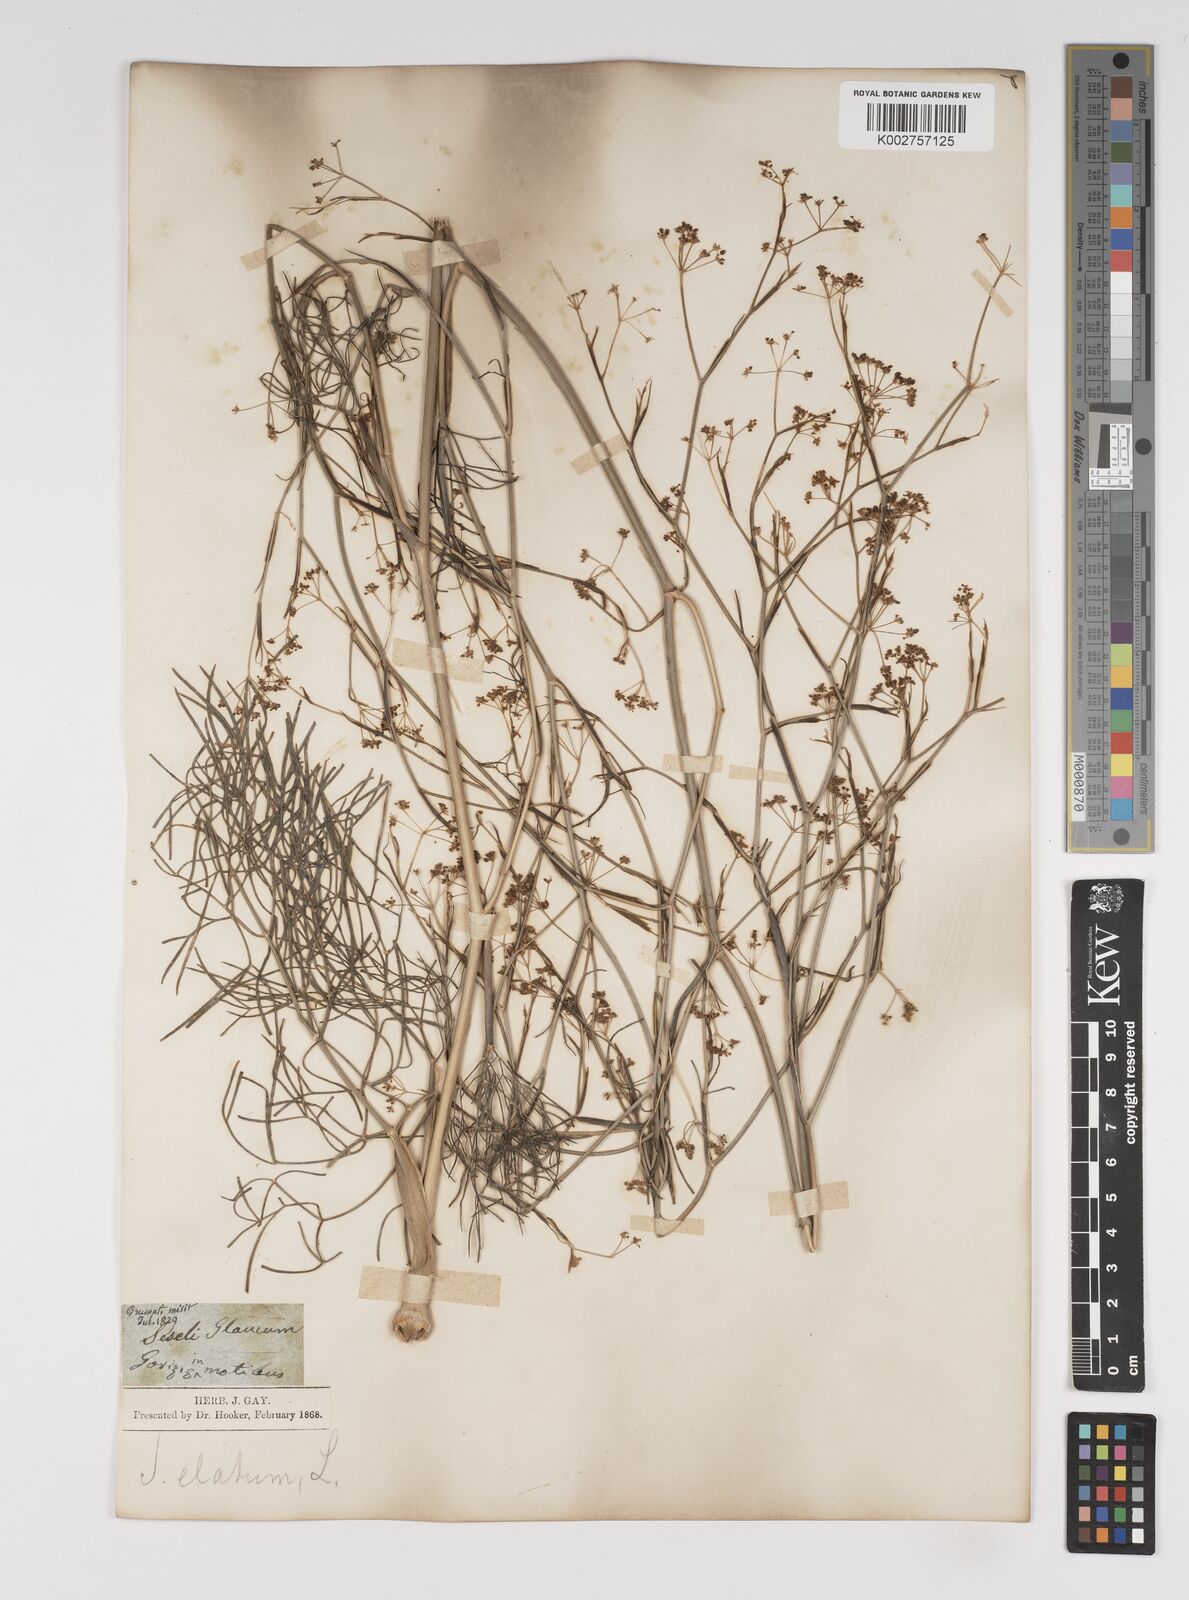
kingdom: Plantae
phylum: Tracheophyta
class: Magnoliopsida
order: Apiales
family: Apiaceae
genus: Seseli
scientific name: Seseli longifolium
